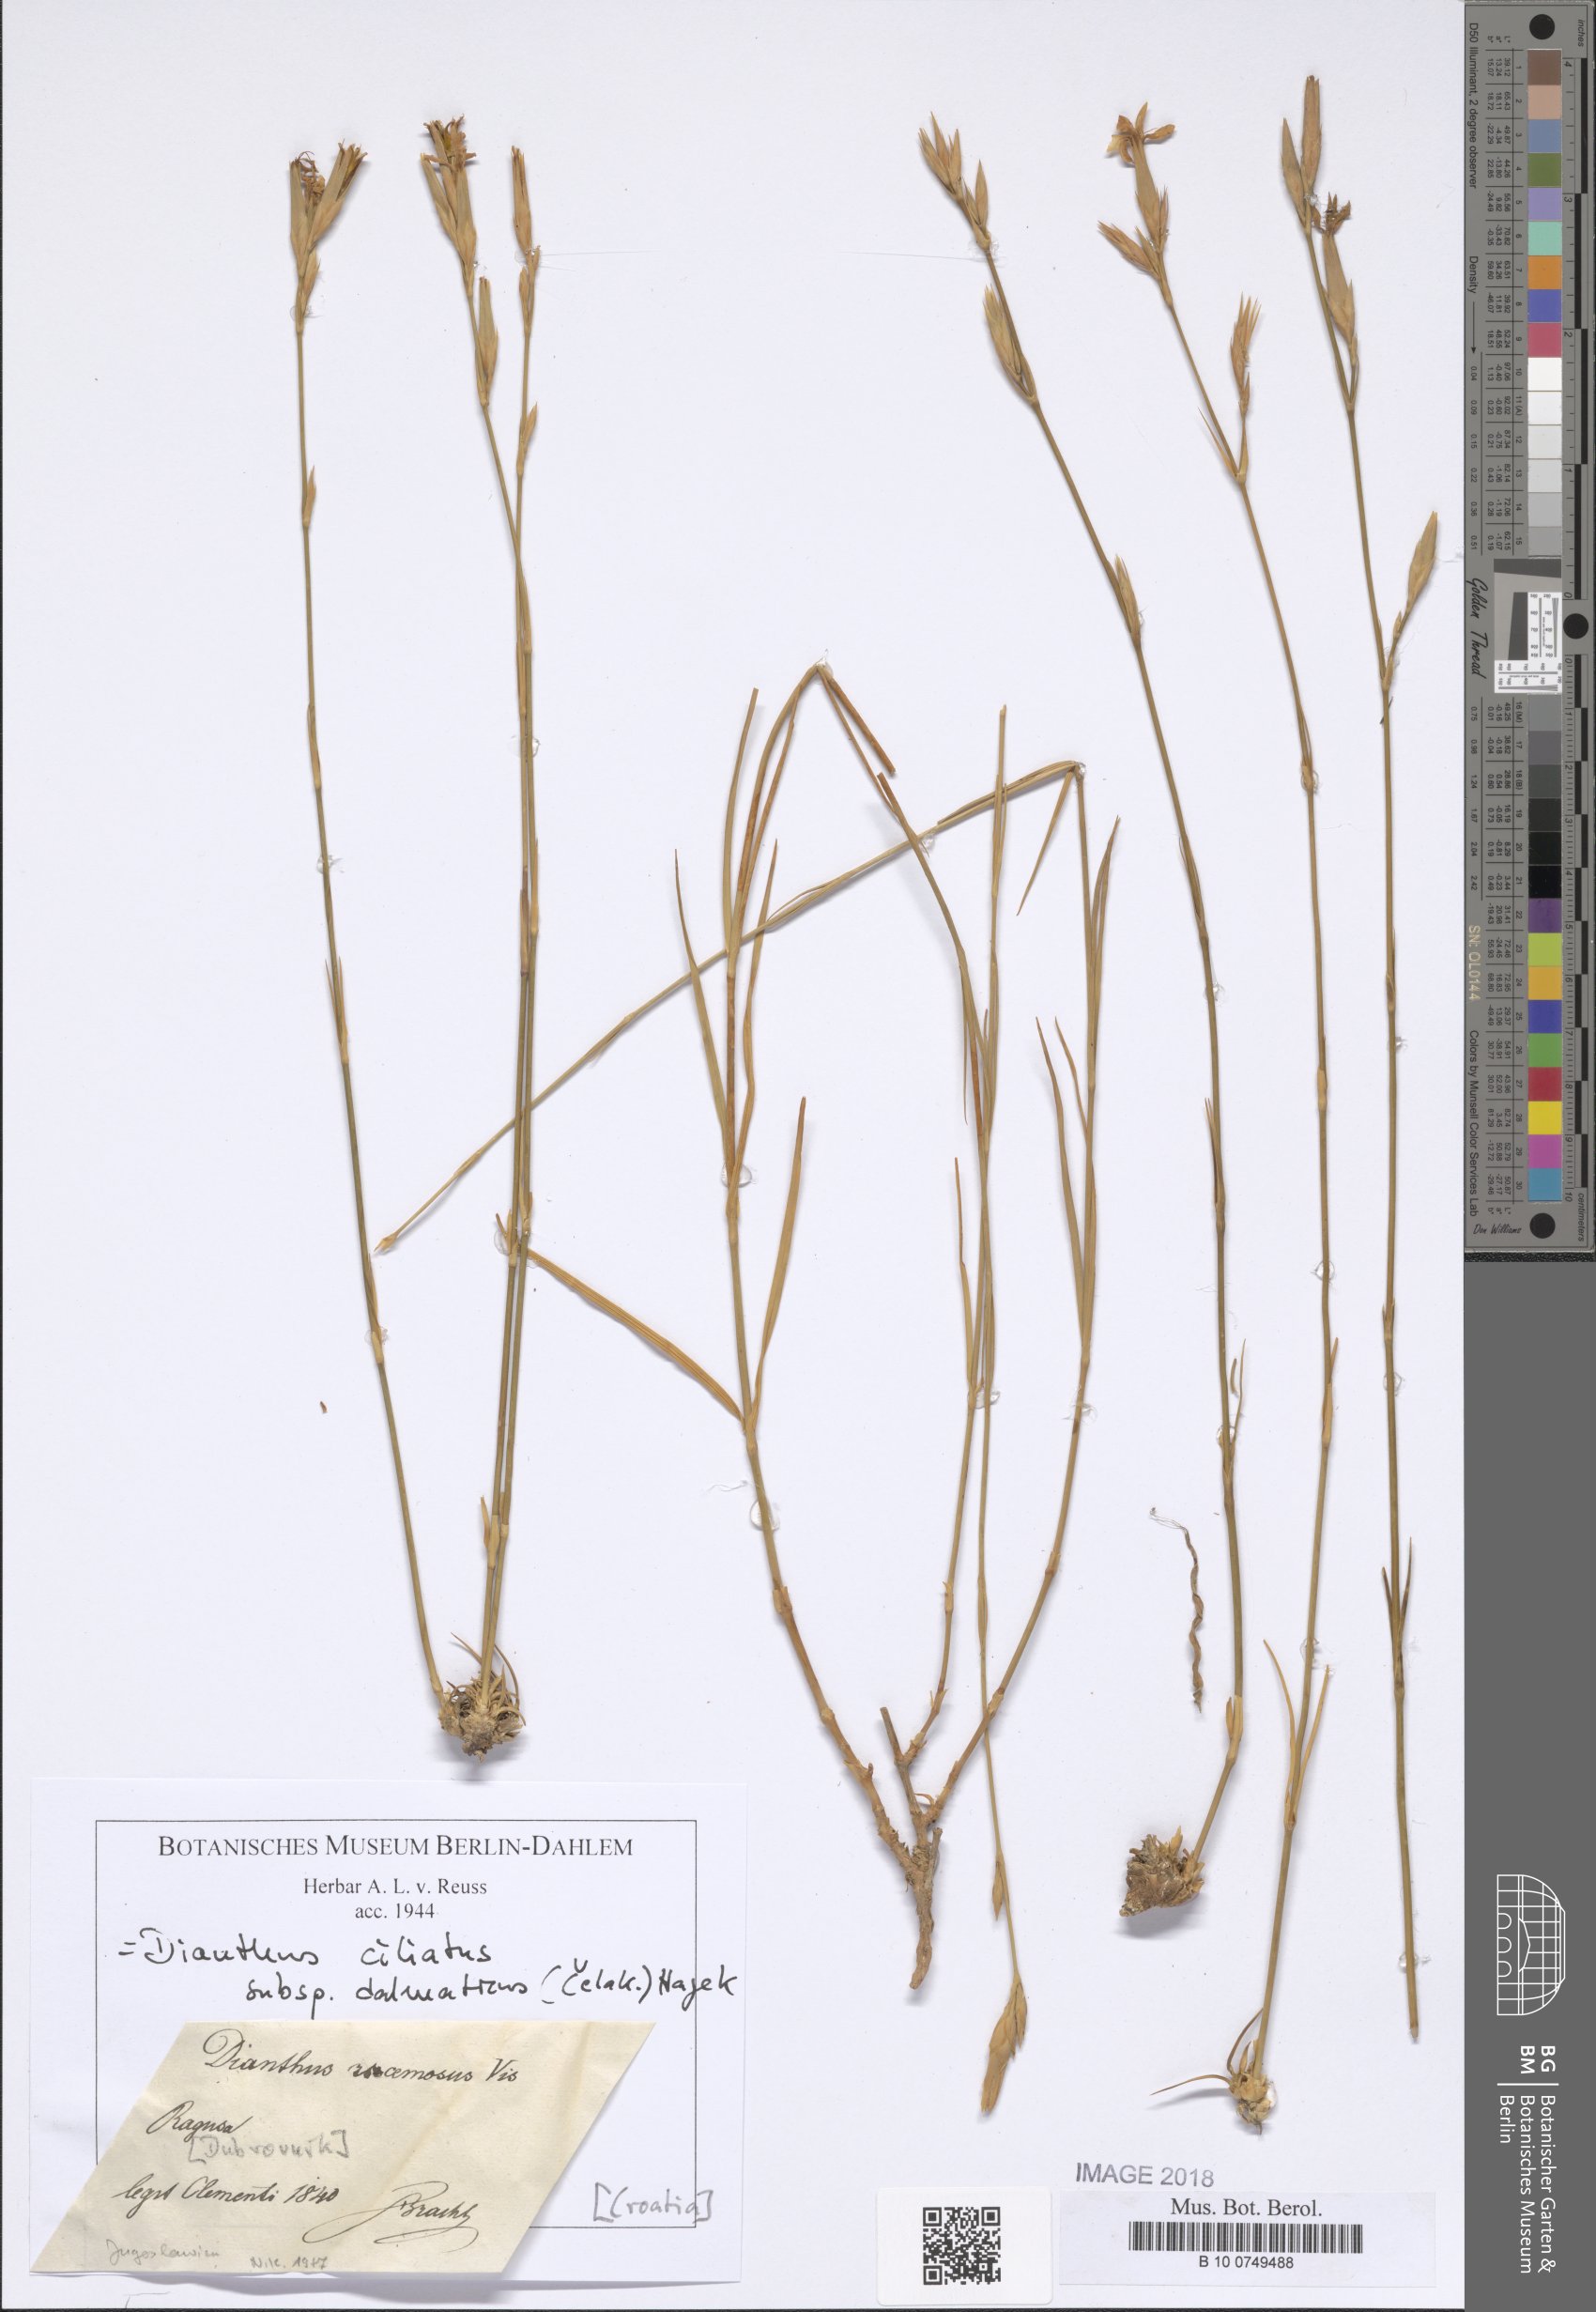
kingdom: Plantae
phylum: Tracheophyta
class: Magnoliopsida
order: Caryophyllales
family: Caryophyllaceae
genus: Dianthus
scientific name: Dianthus ciliatus
